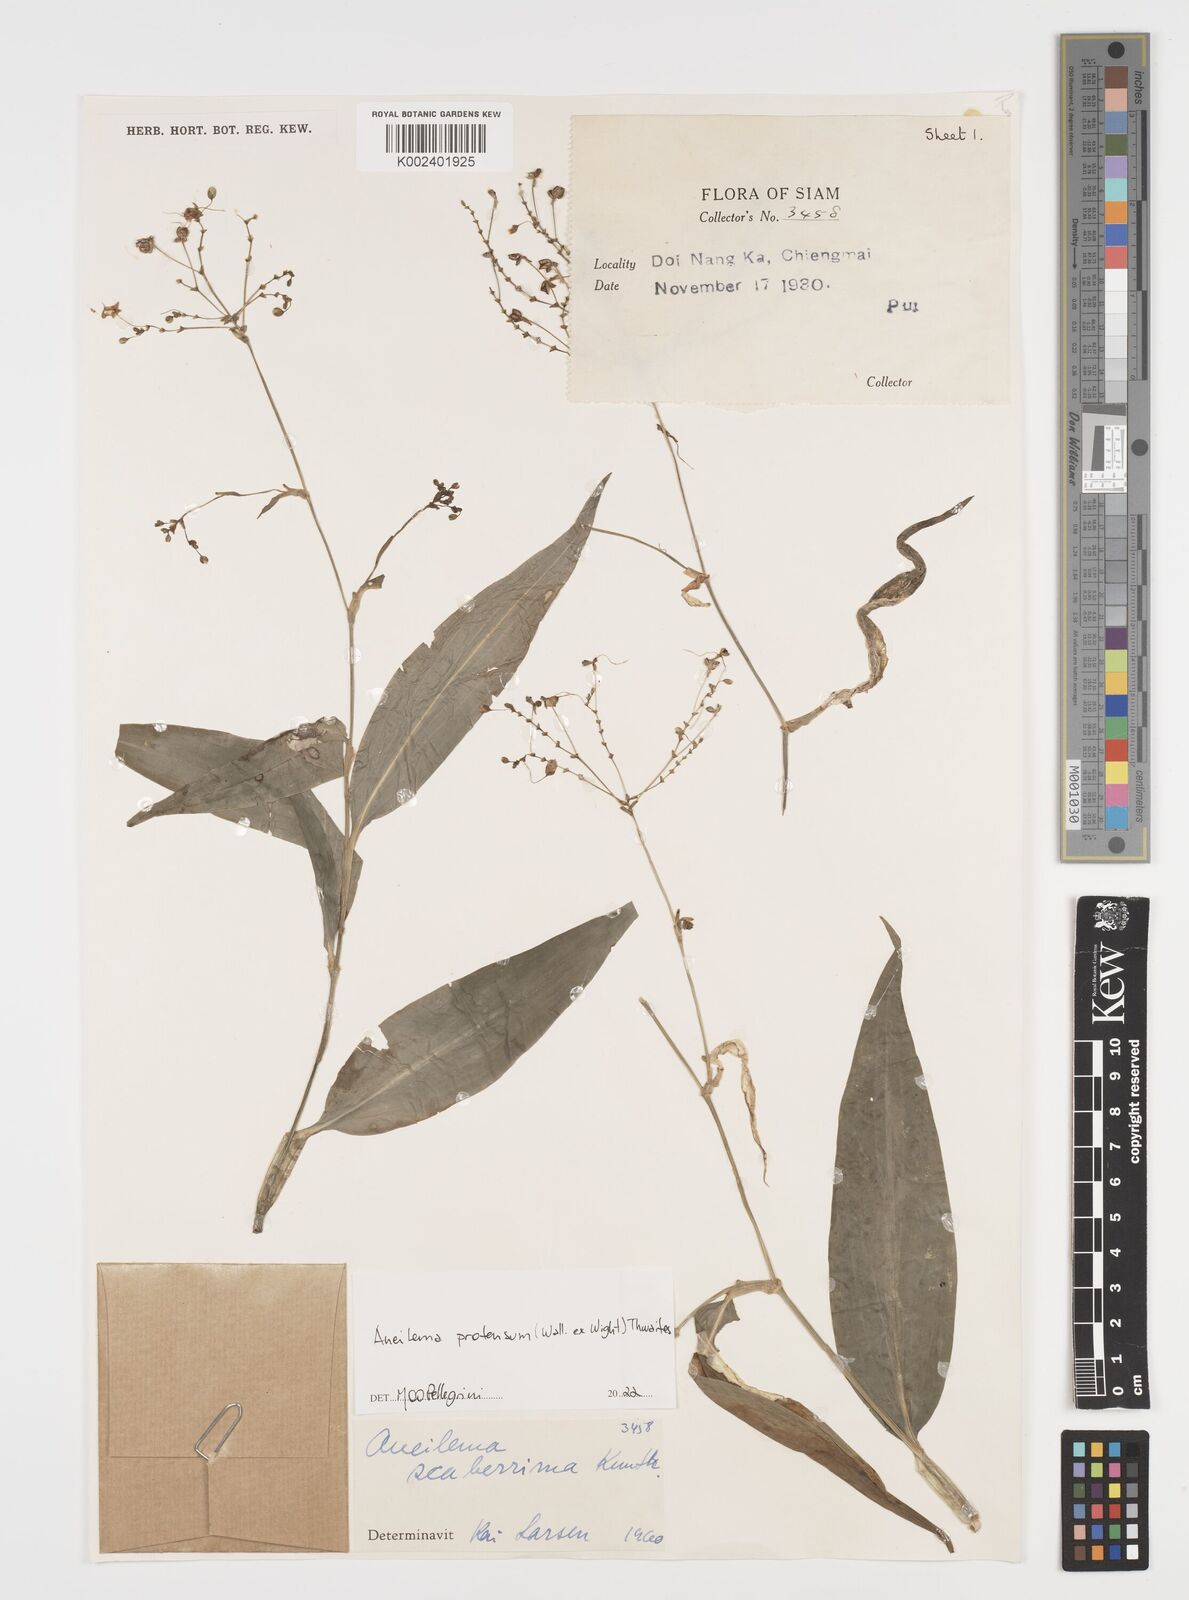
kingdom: Plantae
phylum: Tracheophyta
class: Liliopsida
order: Commelinales
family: Commelinaceae
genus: Rhopalephora
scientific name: Rhopalephora
